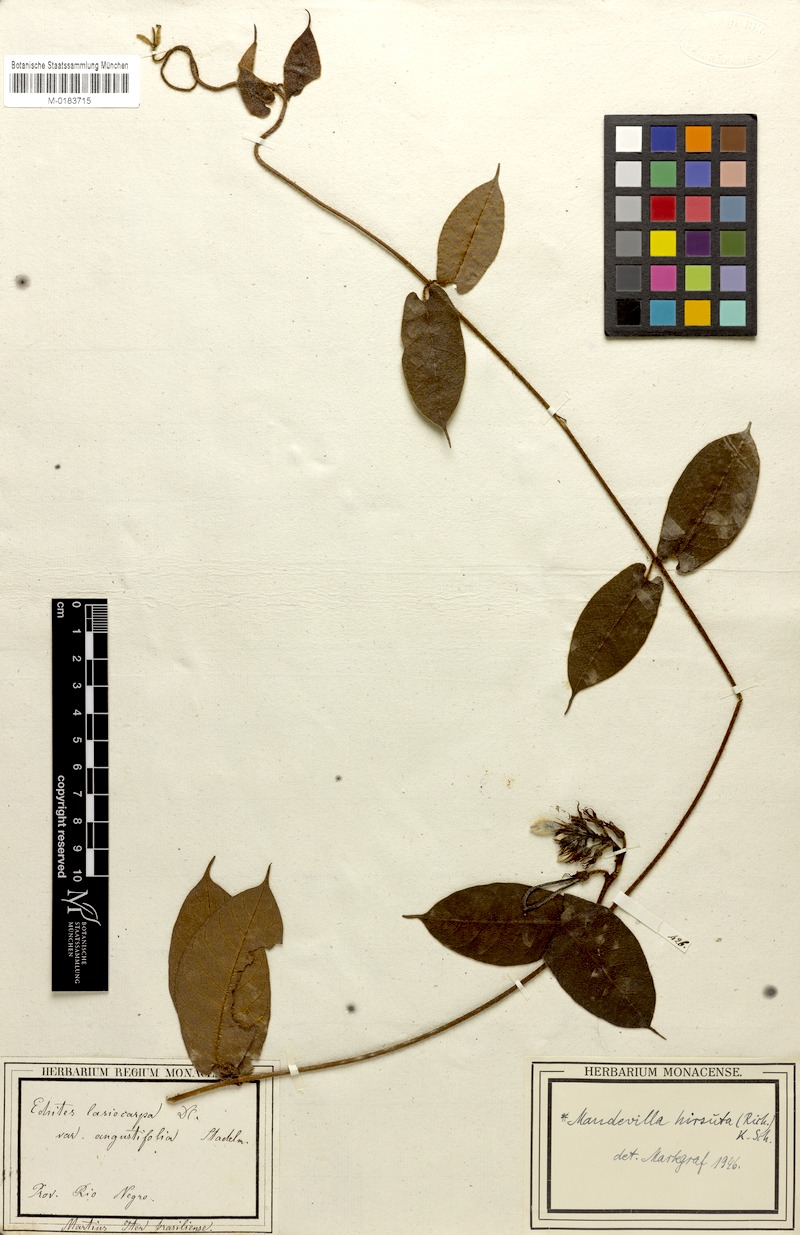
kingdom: Plantae
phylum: Tracheophyta
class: Magnoliopsida
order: Gentianales
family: Apocynaceae
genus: Mandevilla
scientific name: Mandevilla hirsuta
